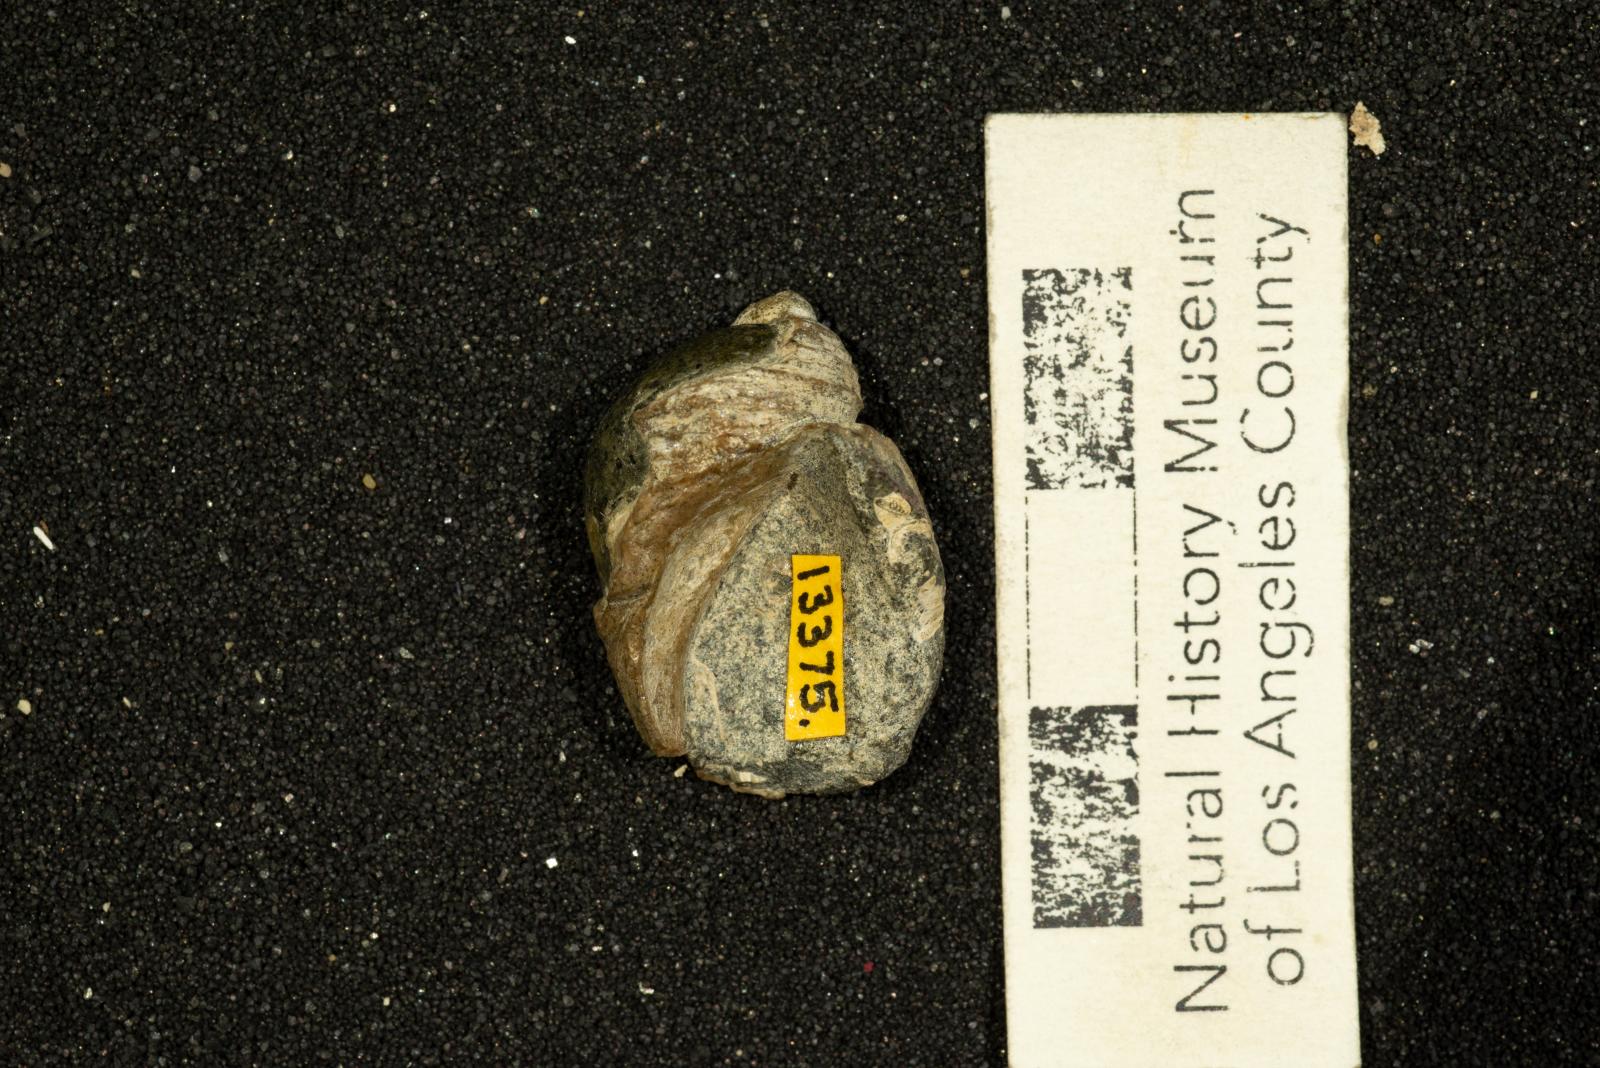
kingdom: Animalia
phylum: Mollusca
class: Gastropoda
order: Littorinimorpha
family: Calyptraeidae
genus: Lysis
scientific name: Lysis mickeyi
